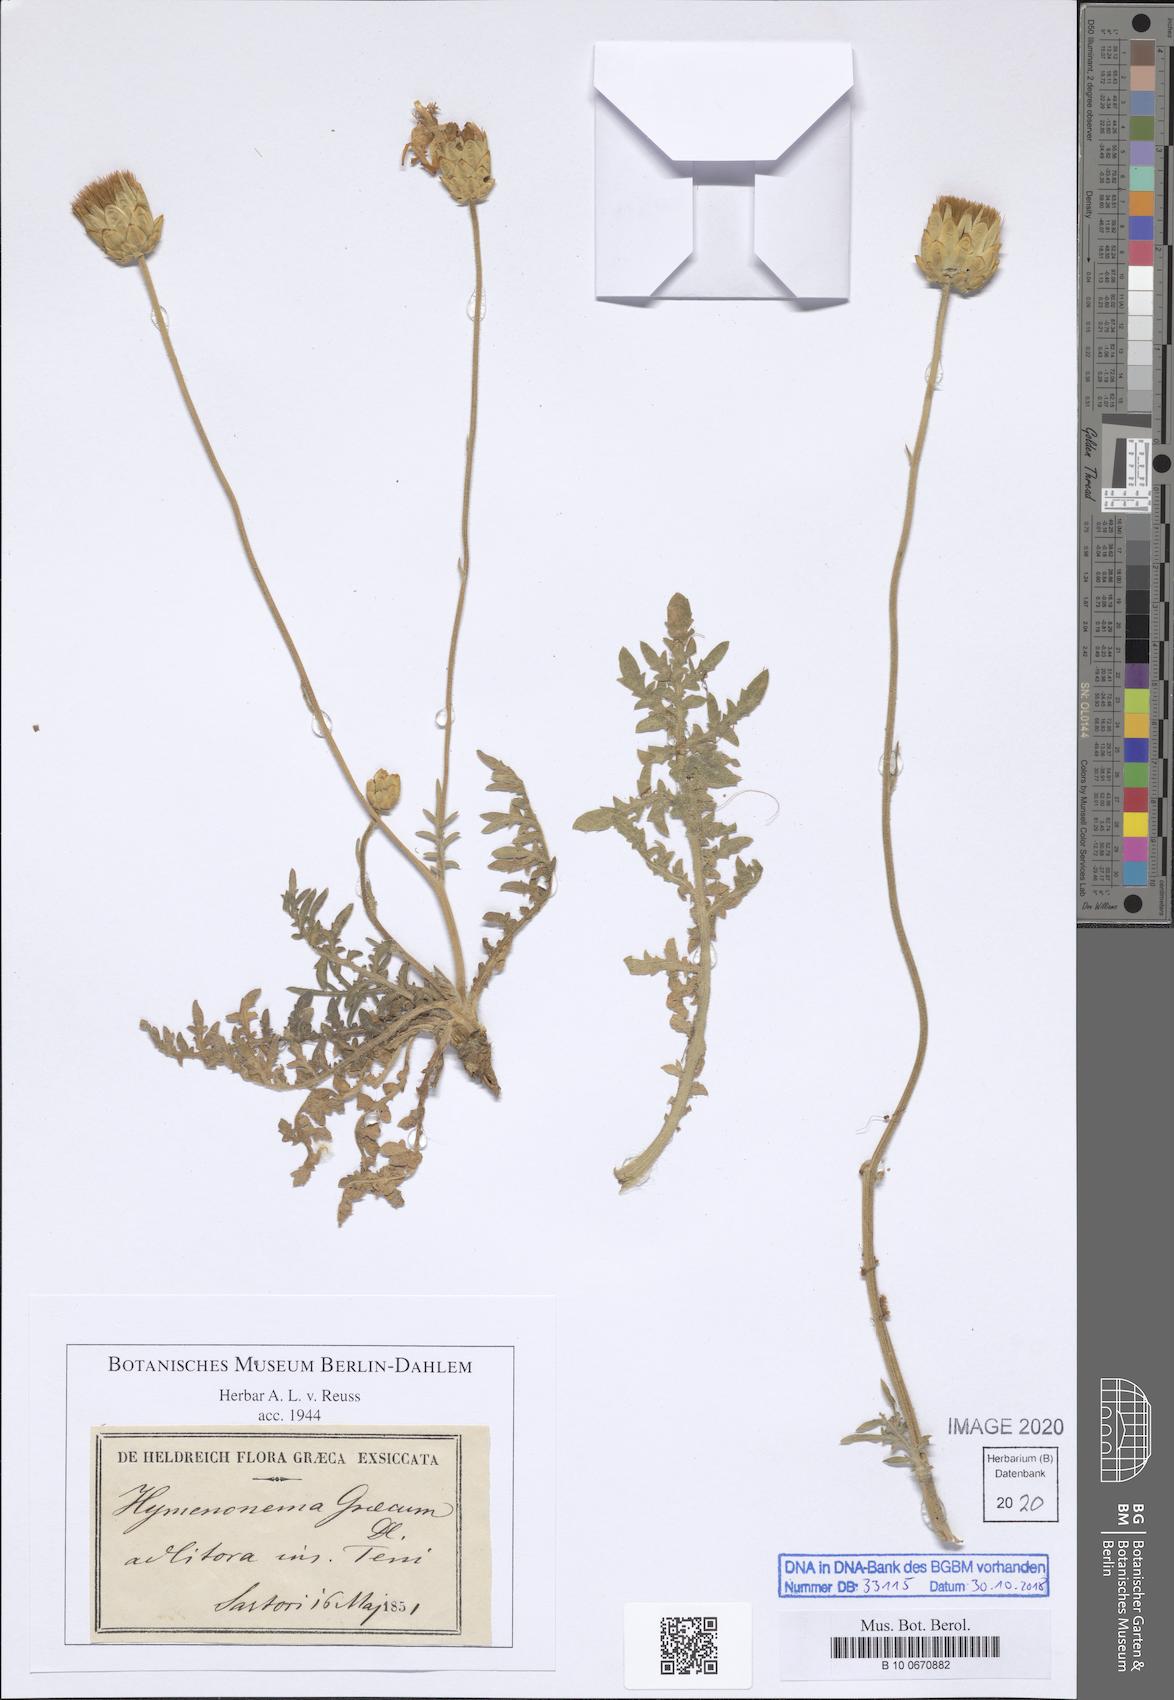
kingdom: Plantae
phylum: Tracheophyta
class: Magnoliopsida
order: Asterales
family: Asteraceae
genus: Hymenonema
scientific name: Hymenonema graecum
